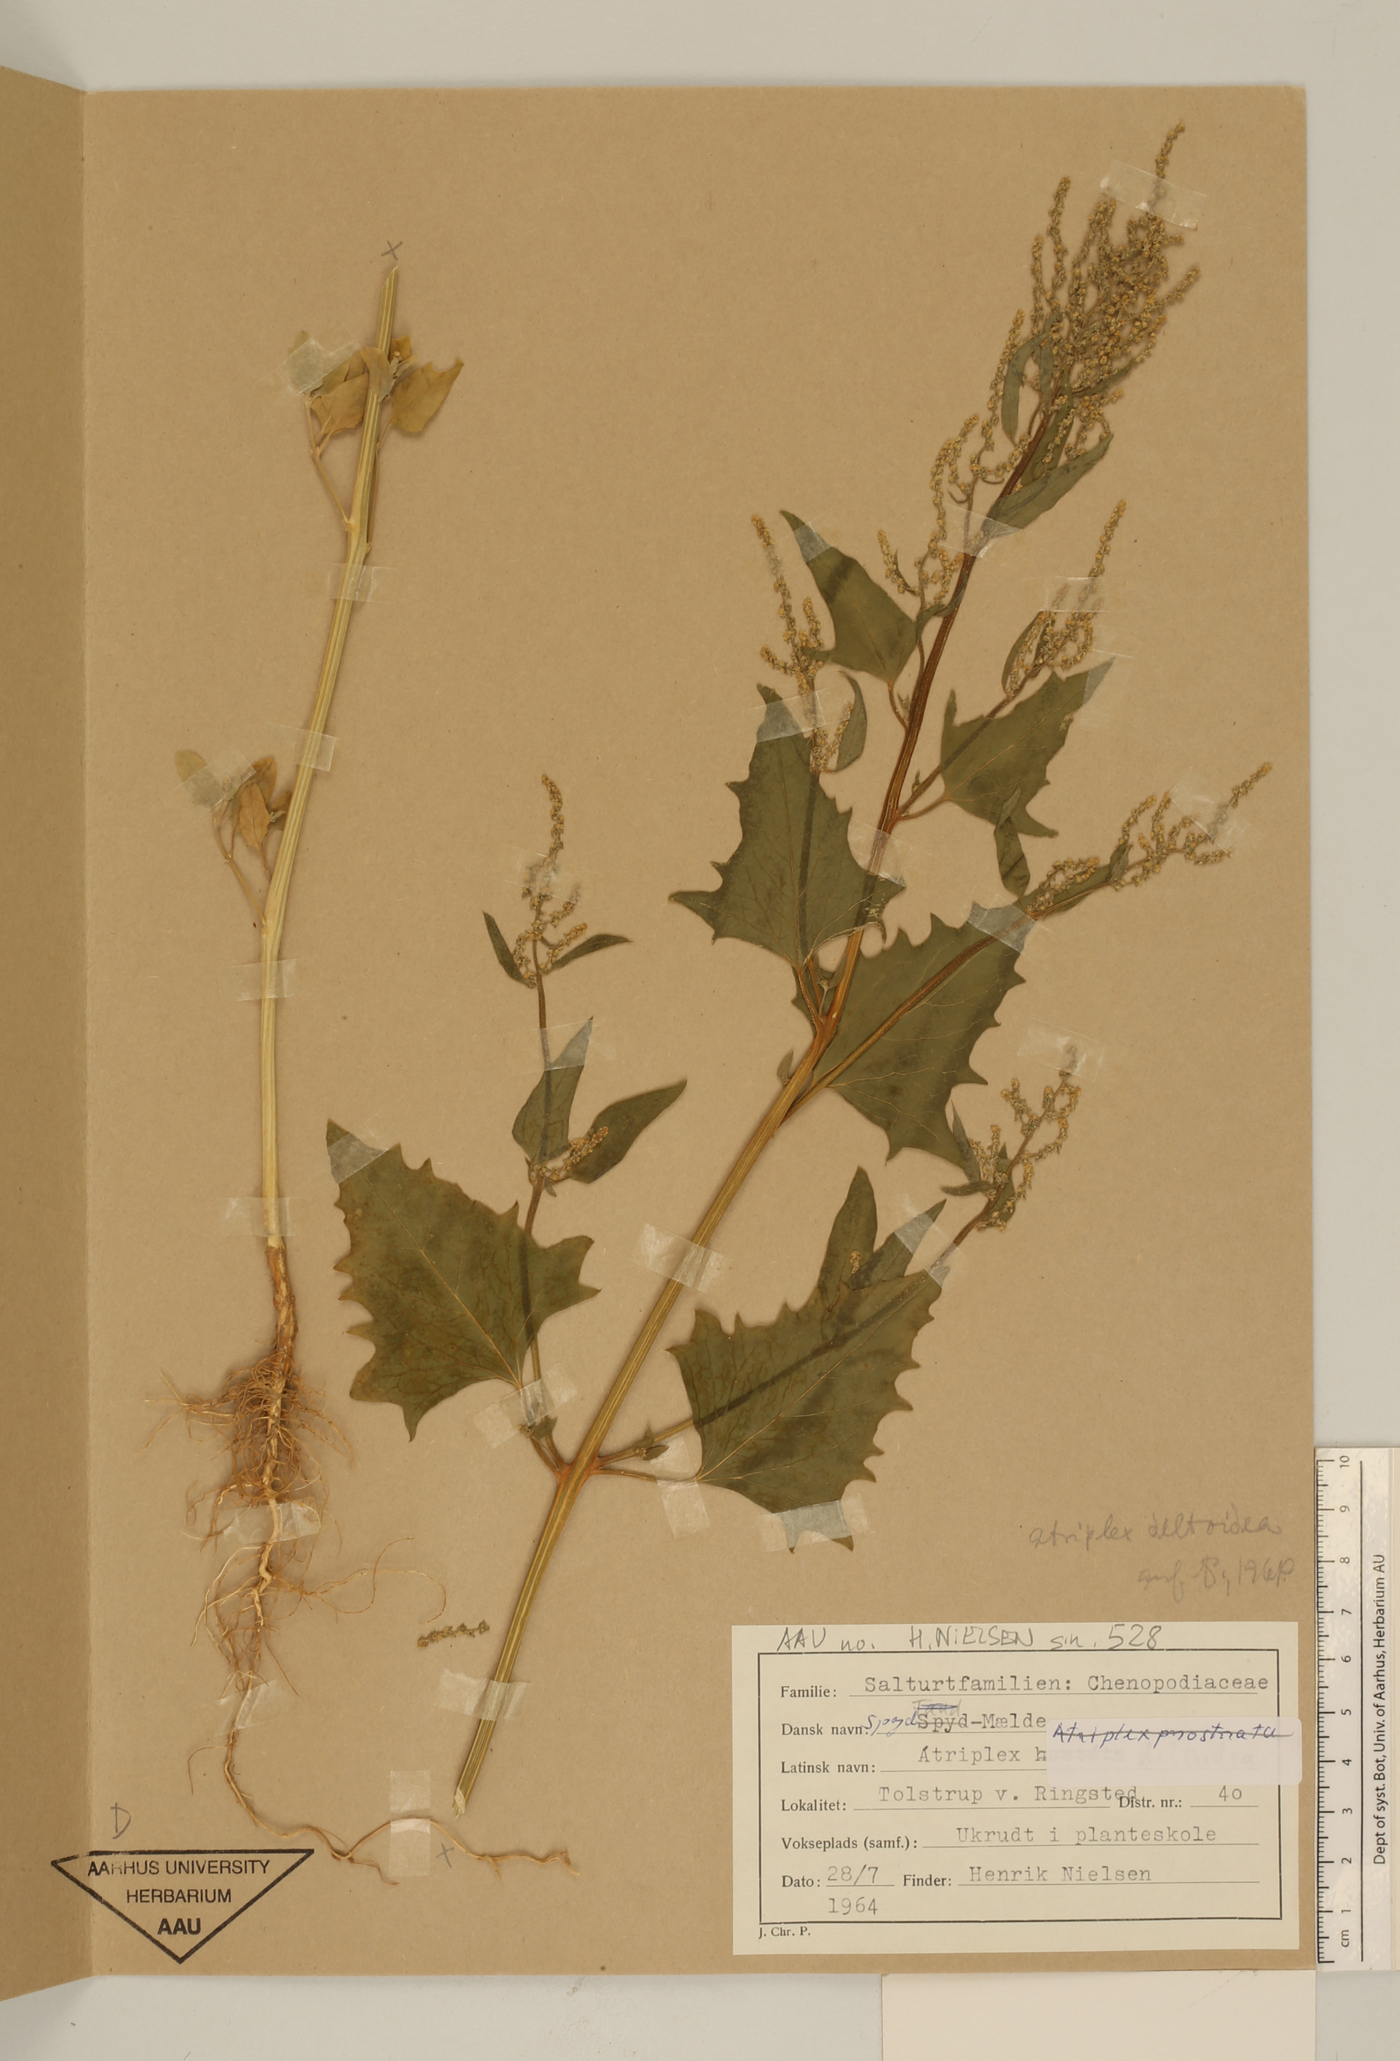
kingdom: Plantae
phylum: Tracheophyta
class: Magnoliopsida
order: Caryophyllales
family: Amaranthaceae
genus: Atriplex
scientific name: Atriplex prostrata
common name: Spear-leaved orache
